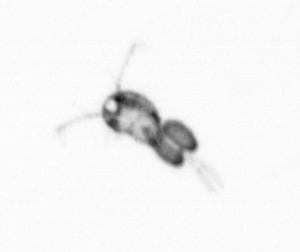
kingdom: Animalia
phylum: Arthropoda
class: Copepoda
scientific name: Copepoda
